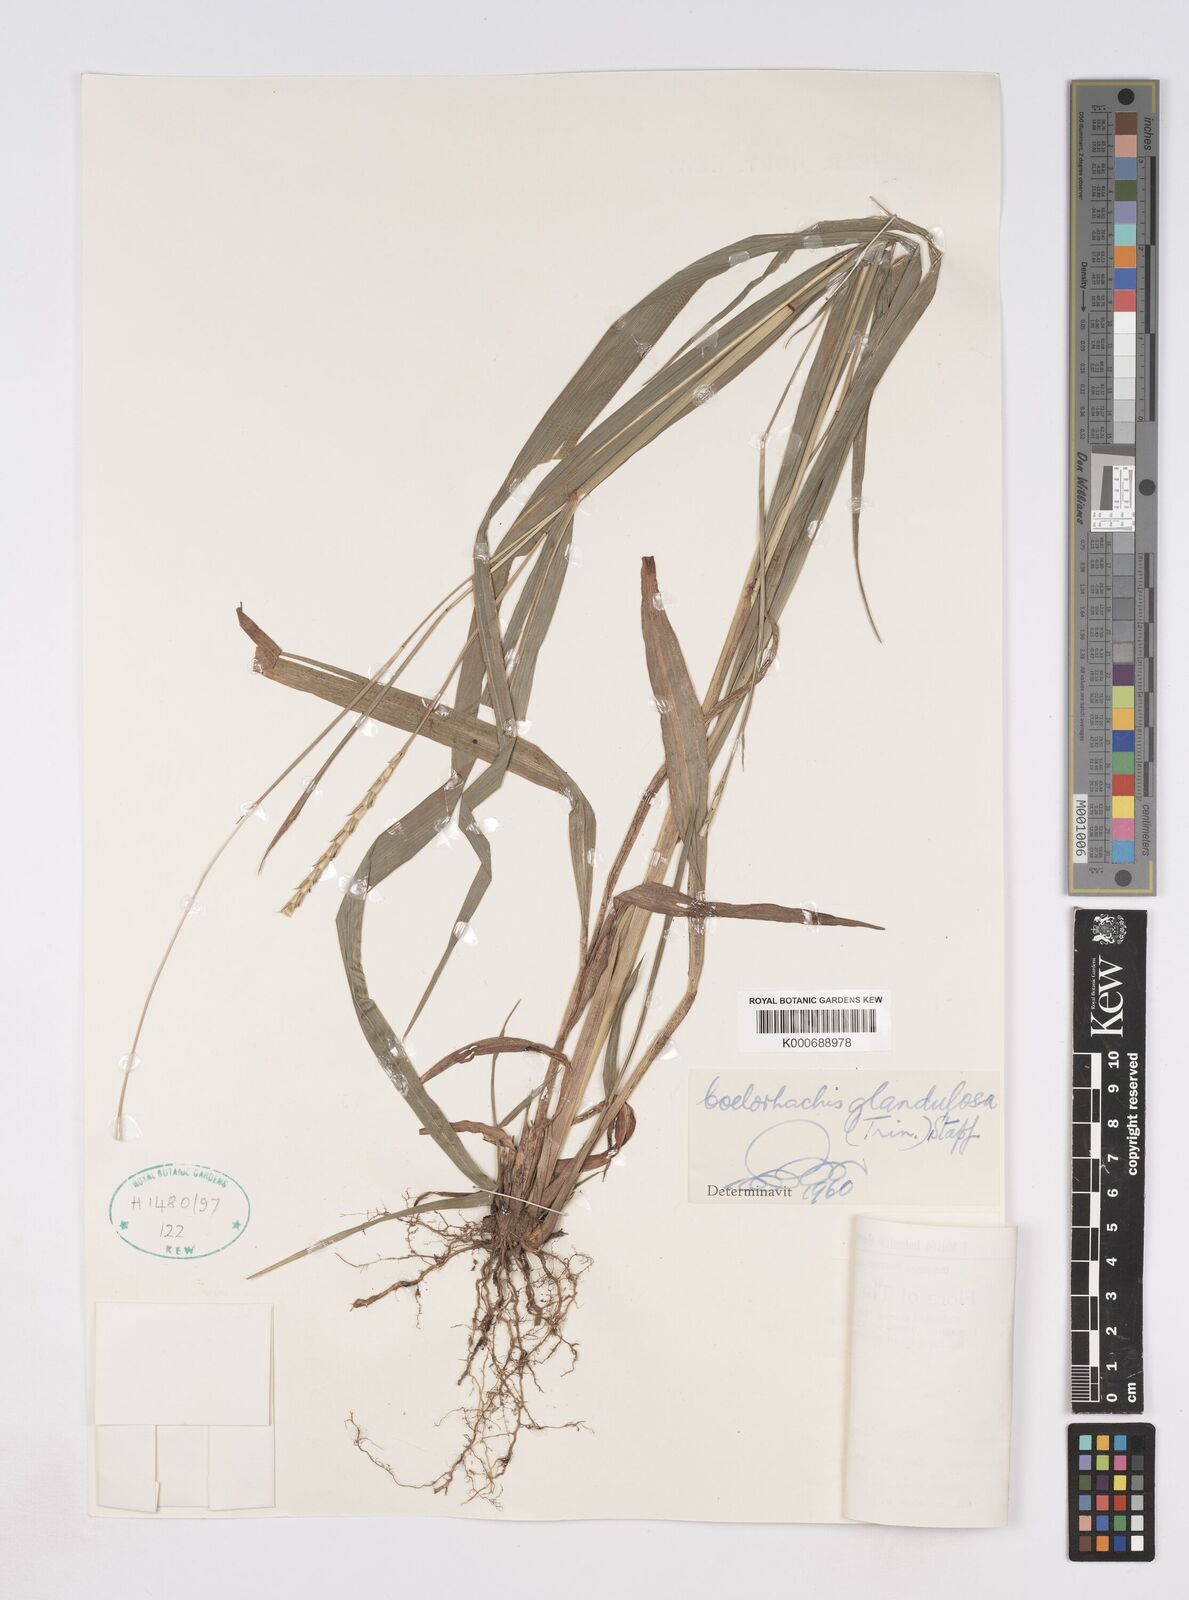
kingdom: Plantae
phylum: Tracheophyta
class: Liliopsida
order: Poales
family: Poaceae
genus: Rottboellia
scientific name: Rottboellia glandulosa
